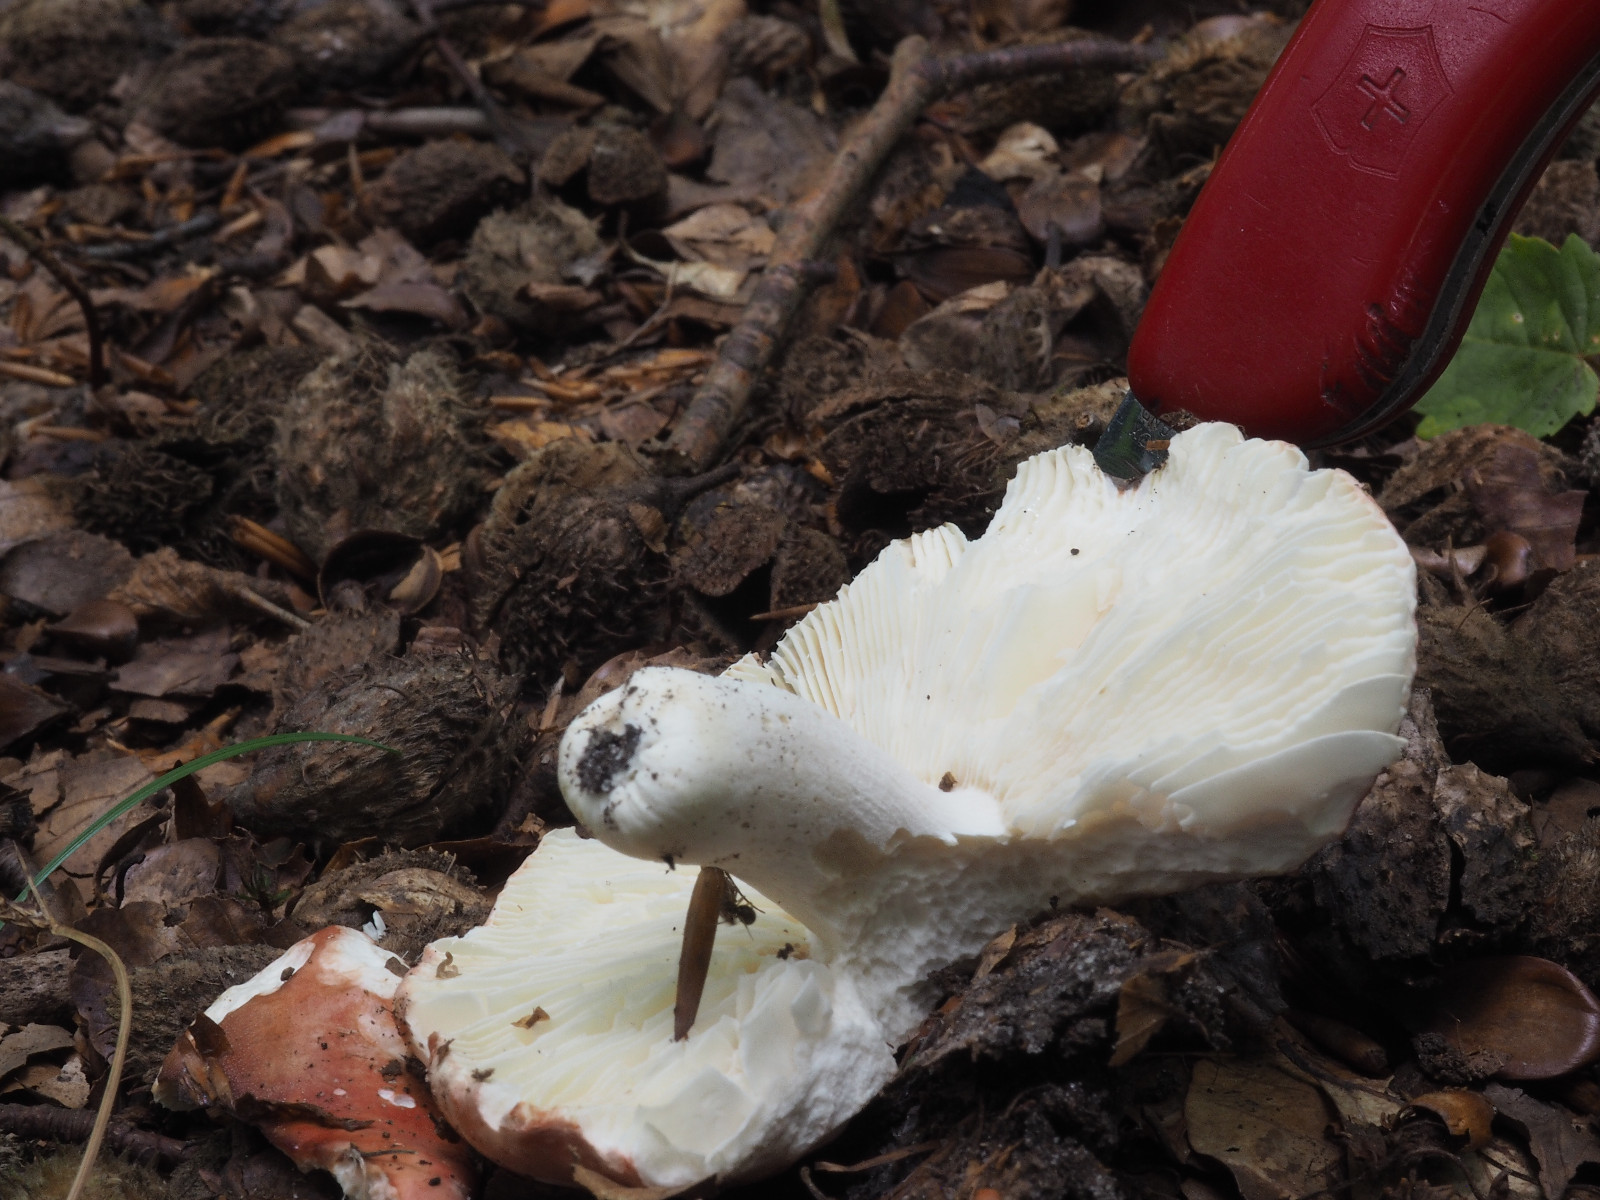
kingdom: Fungi
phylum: Basidiomycota
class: Agaricomycetes
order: Russulales
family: Russulaceae
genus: Russula
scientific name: Russula
